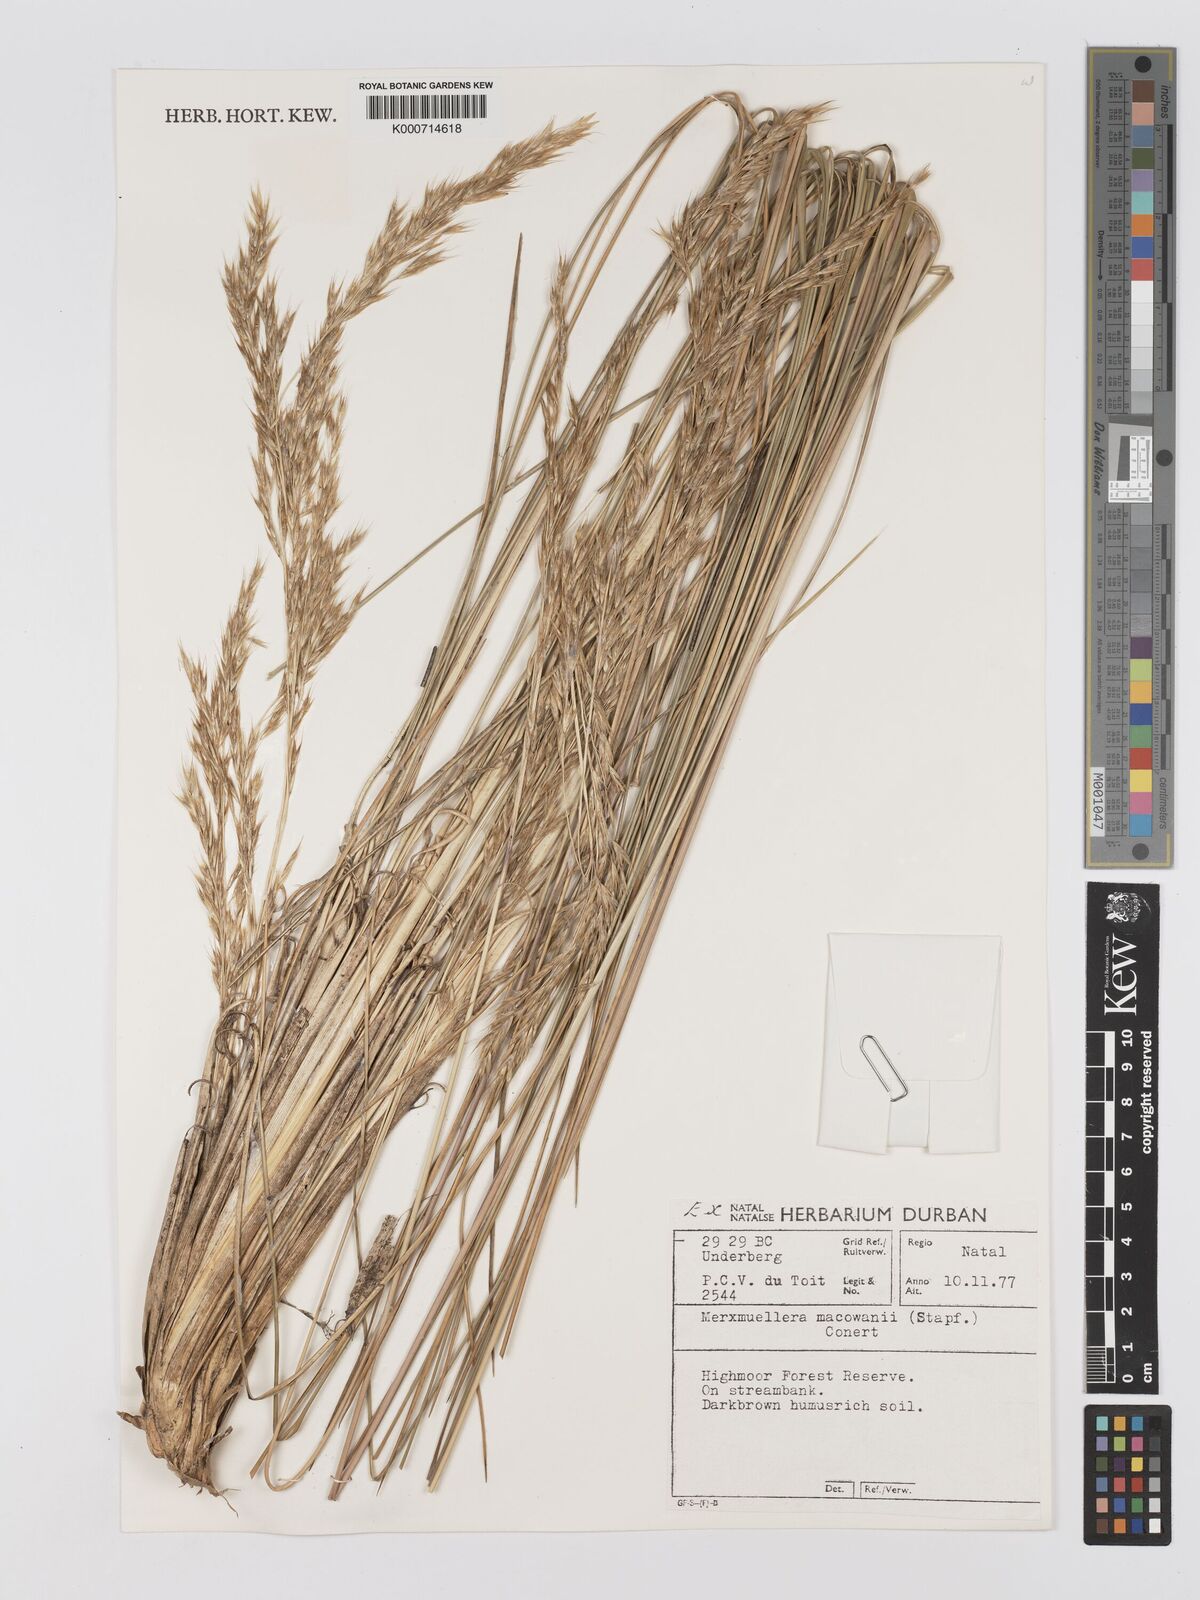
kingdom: Plantae
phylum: Tracheophyta
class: Liliopsida
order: Poales
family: Poaceae
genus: Rytidosperma
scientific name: Rytidosperma
